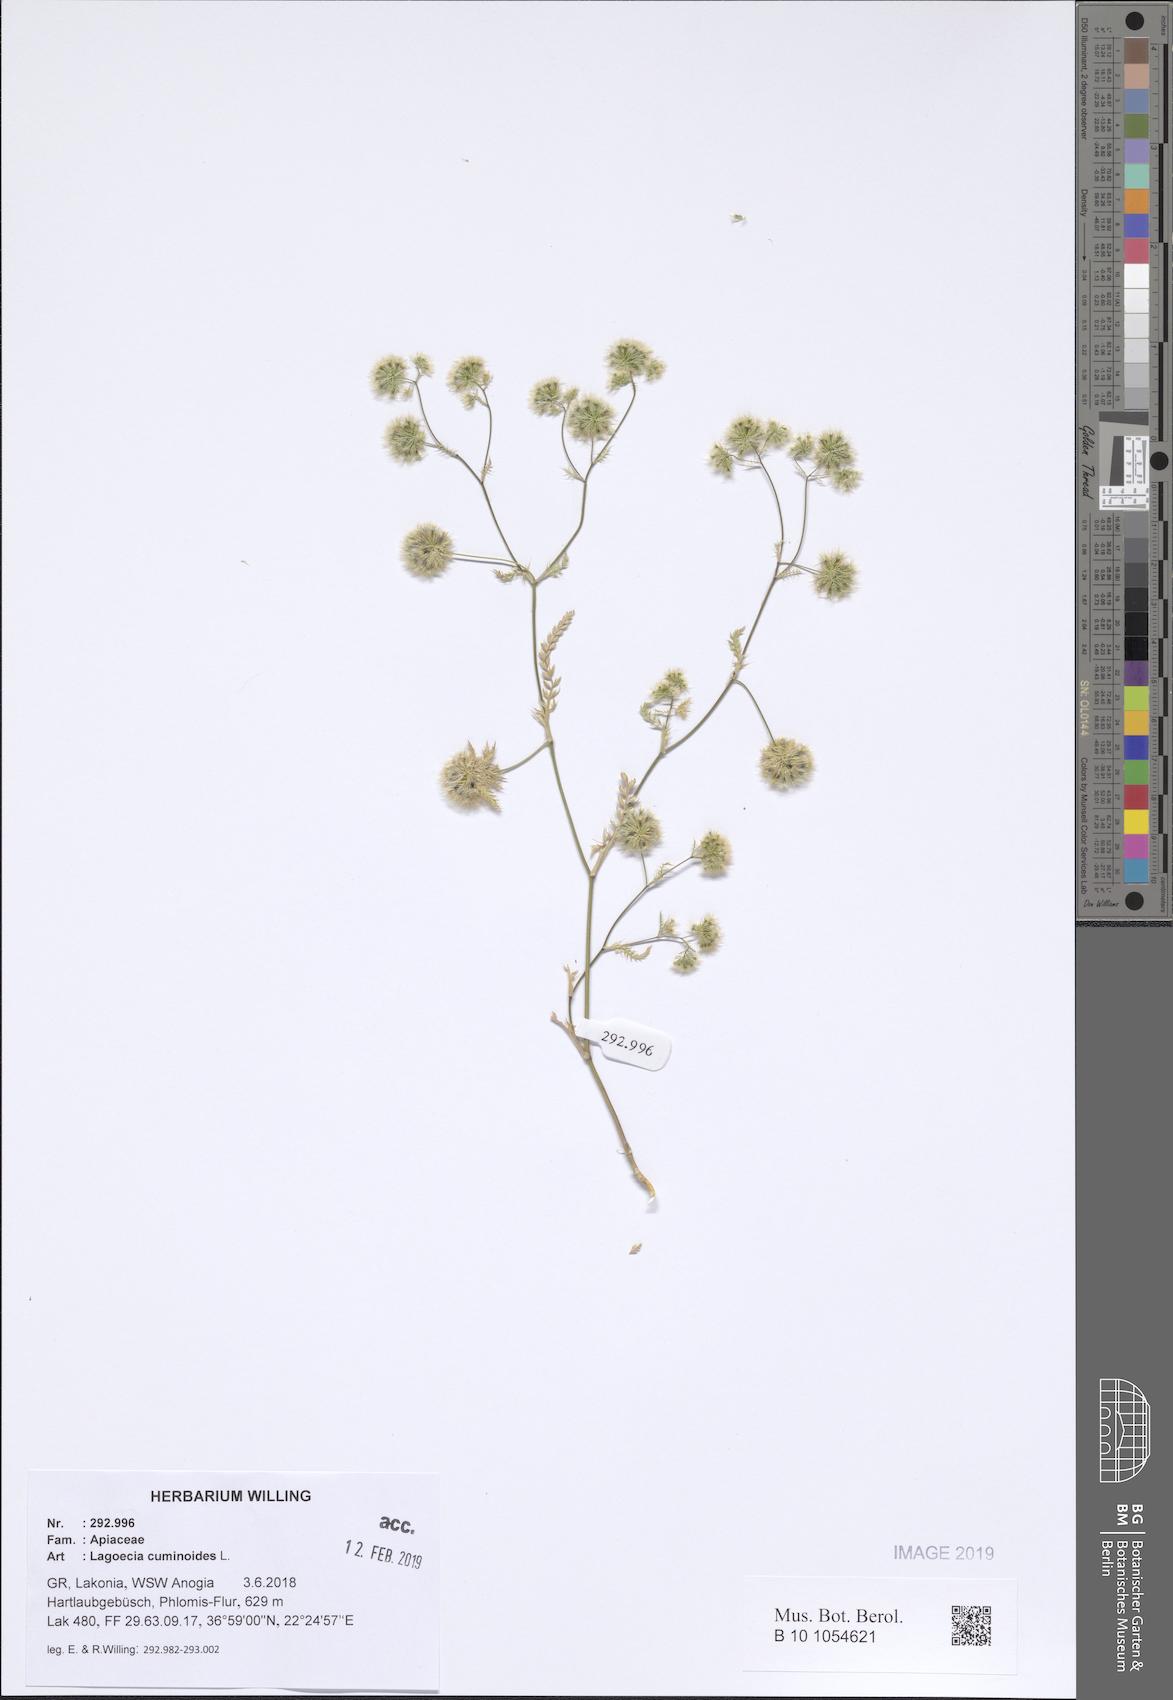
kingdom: Plantae
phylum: Tracheophyta
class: Magnoliopsida
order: Apiales
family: Apiaceae
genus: Lagoecia
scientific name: Lagoecia cuminoides
